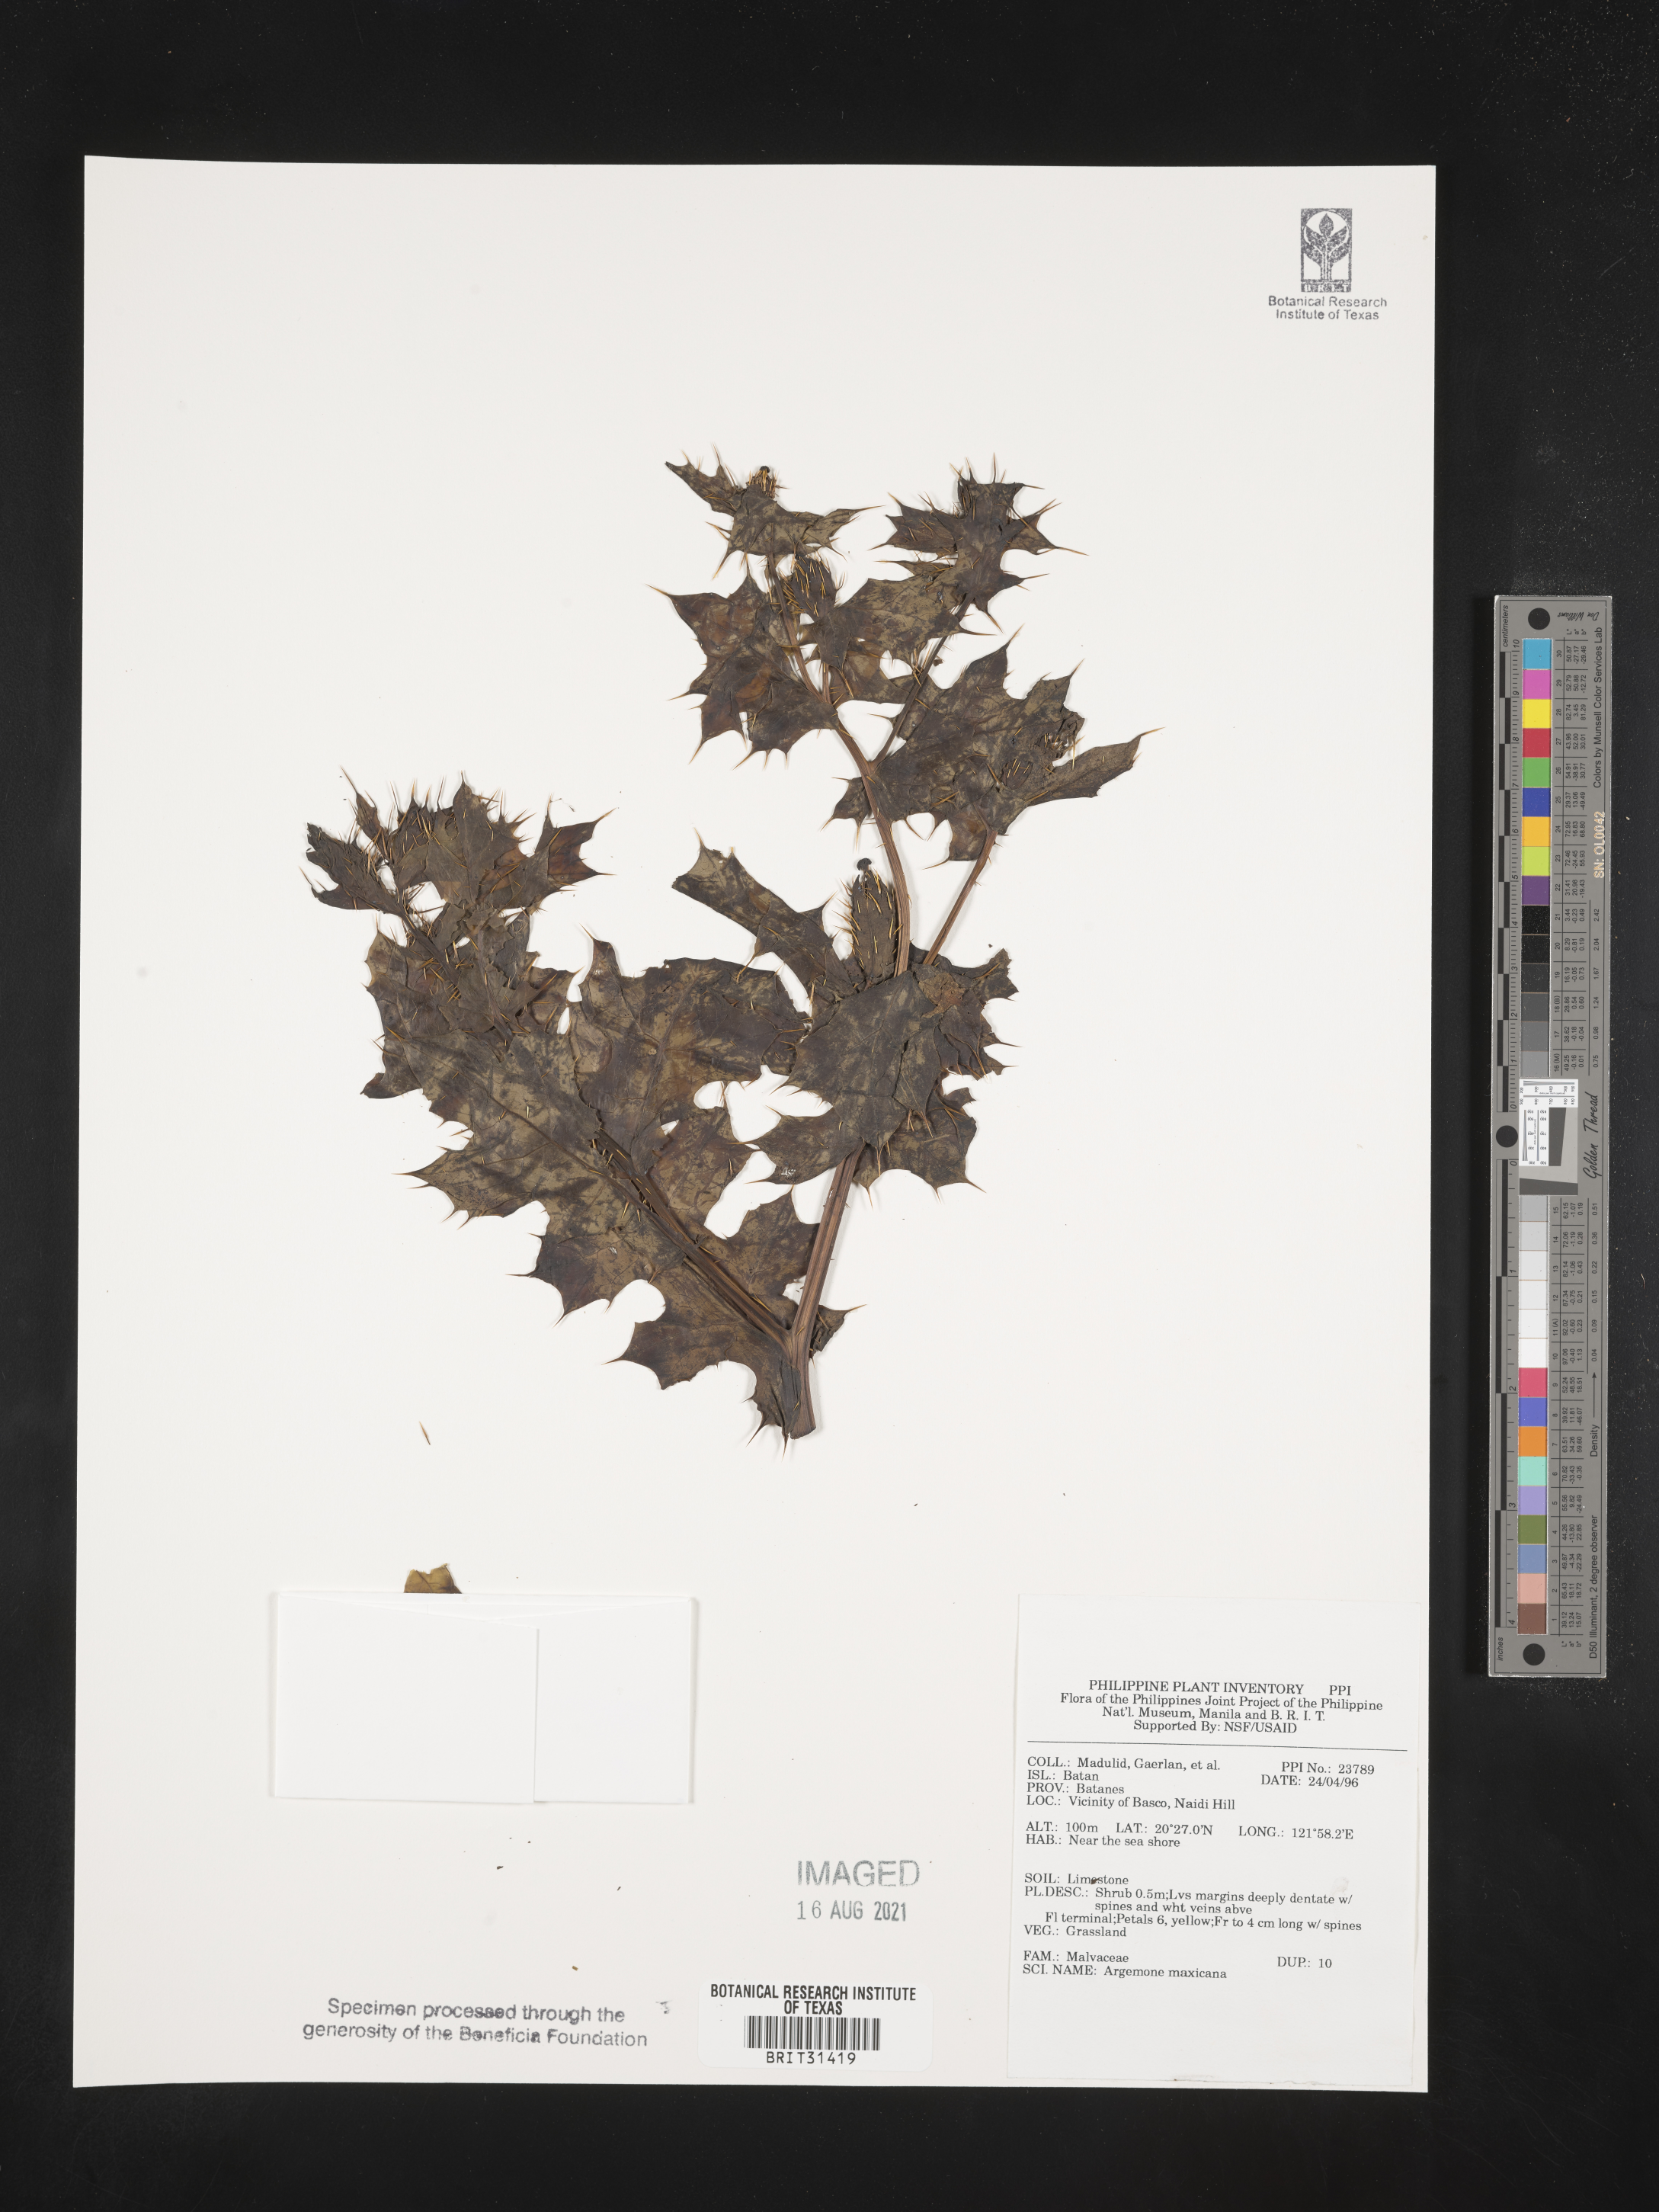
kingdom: Plantae
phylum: Tracheophyta
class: Magnoliopsida
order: Ranunculales
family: Papaveraceae
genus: Argemone
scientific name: Argemone mexicana
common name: Mexican poppy
